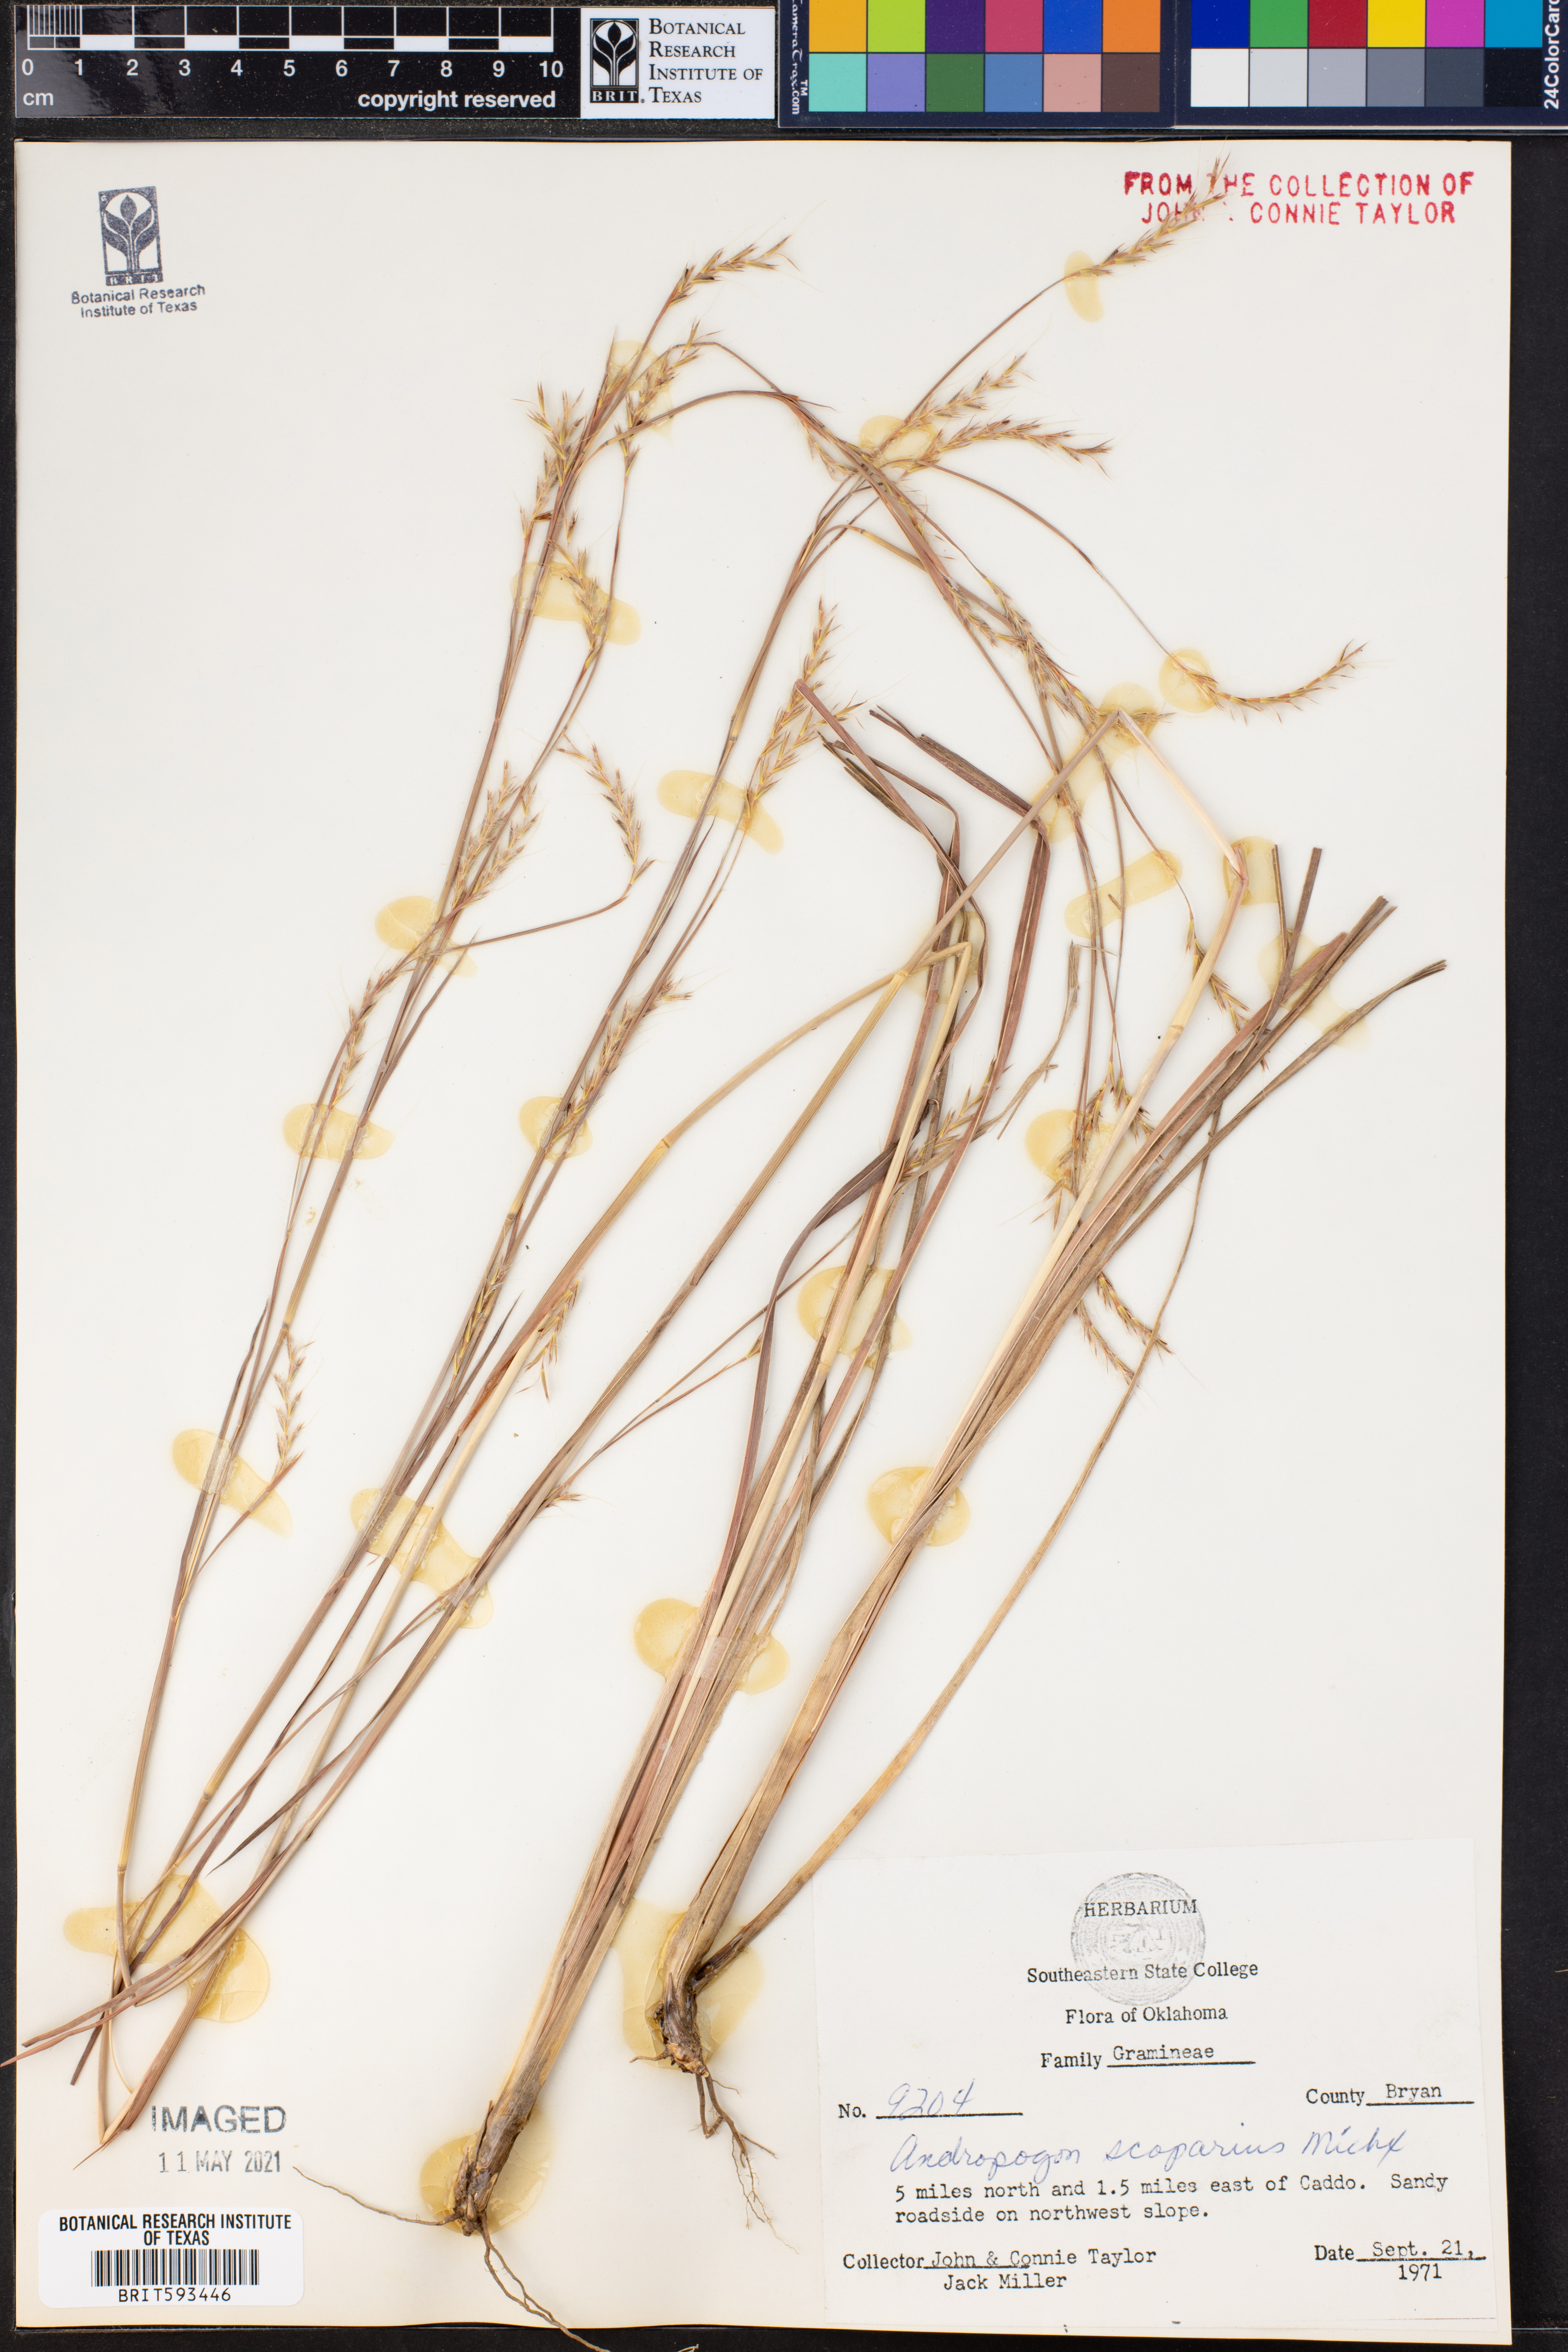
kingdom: Plantae
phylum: Tracheophyta
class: Liliopsida
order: Poales
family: Poaceae
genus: Schizachyrium
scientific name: Schizachyrium scoparium
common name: Little bluestem
